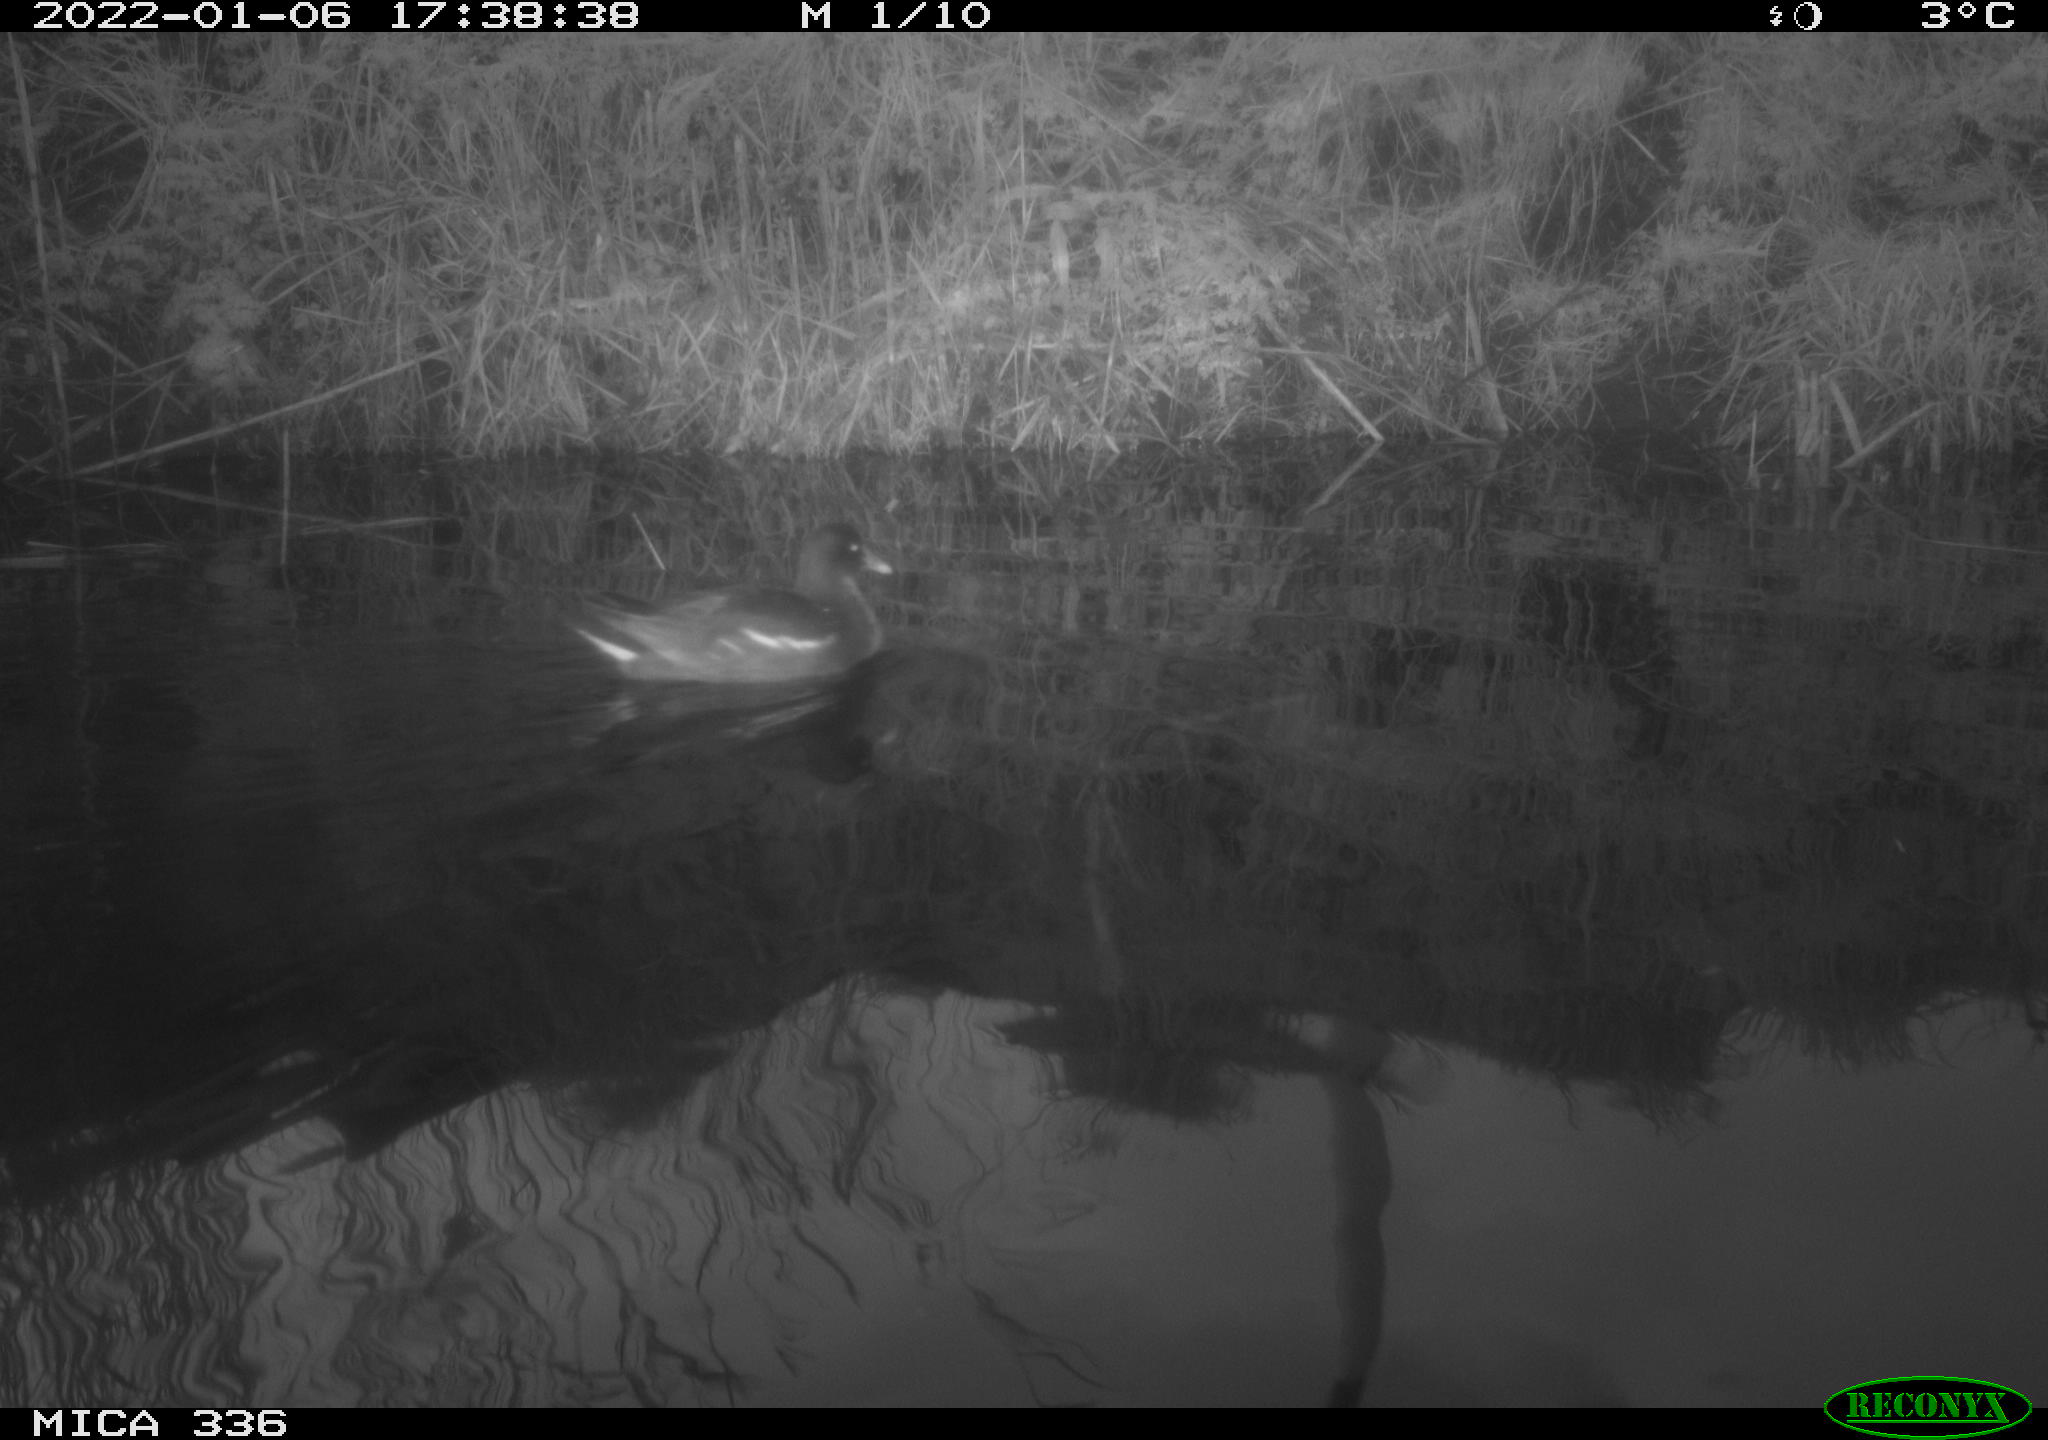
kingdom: Animalia
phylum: Chordata
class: Aves
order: Gruiformes
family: Rallidae
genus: Gallinula
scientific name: Gallinula chloropus
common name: Common moorhen
